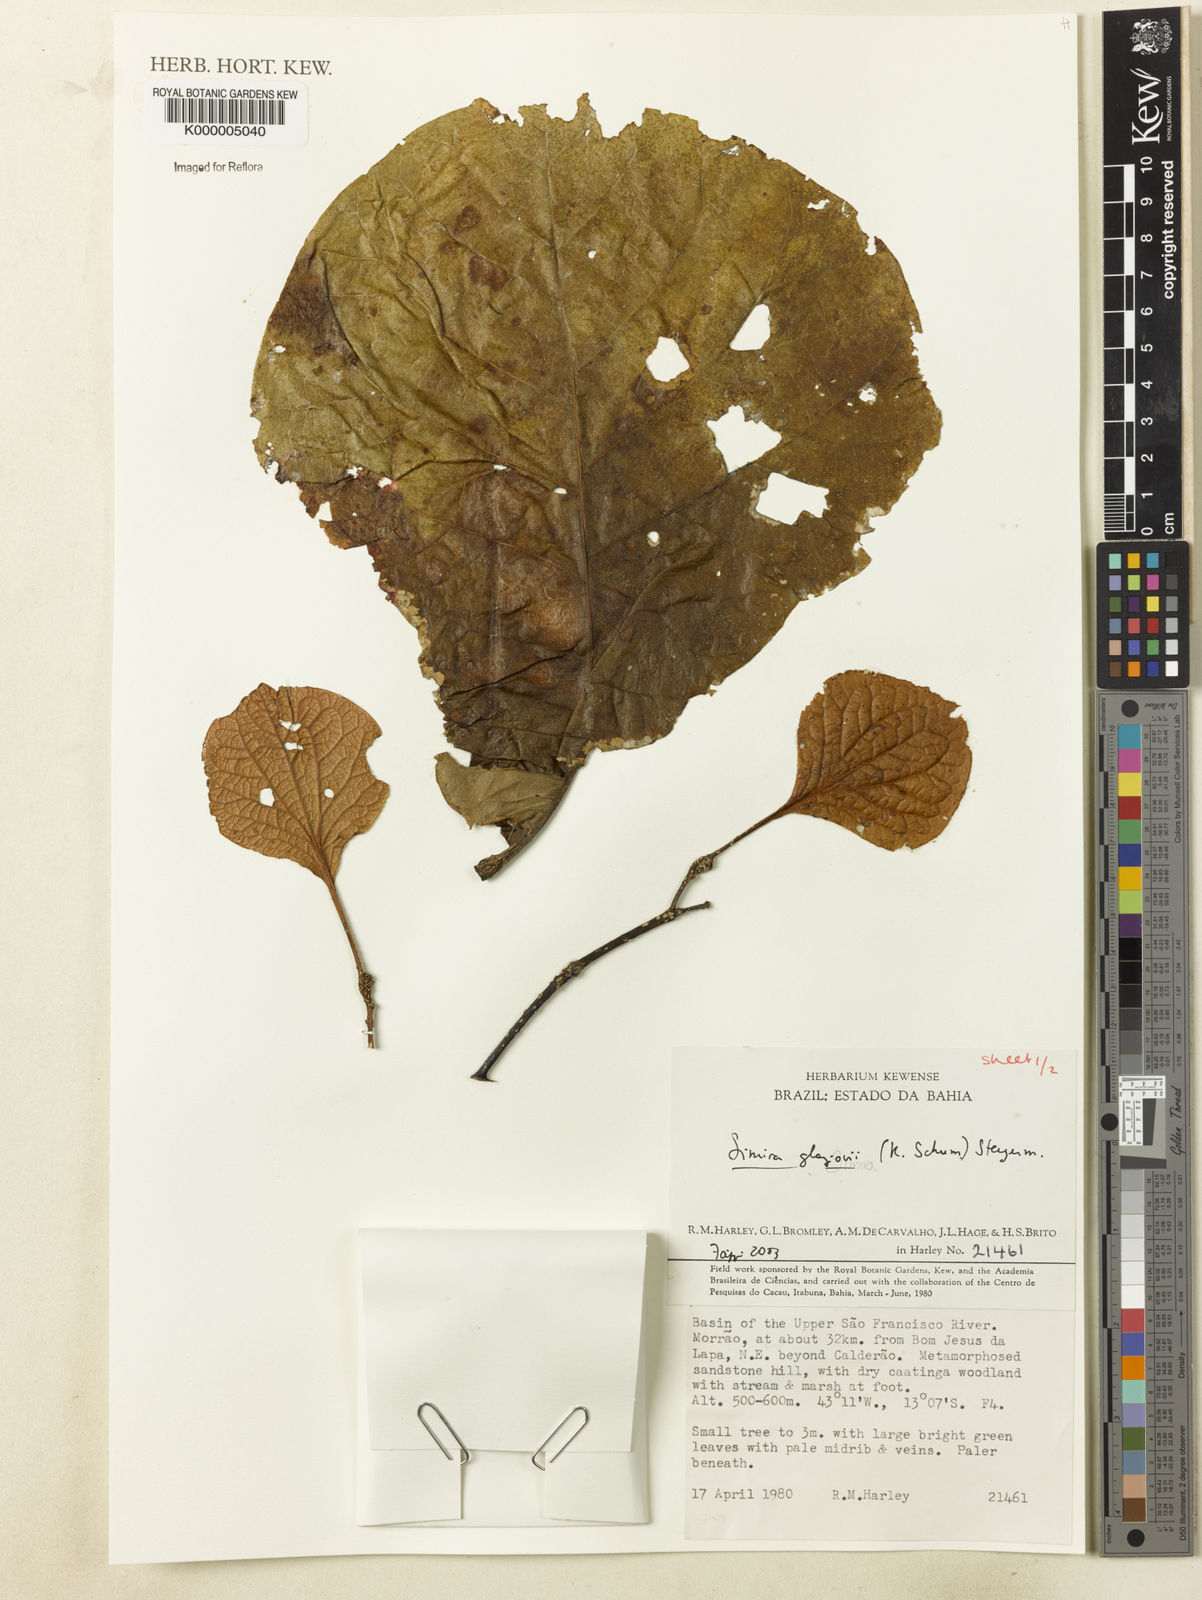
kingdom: Plantae
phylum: Tracheophyta
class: Magnoliopsida
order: Gentianales
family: Rubiaceae
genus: Pogonopus
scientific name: Pogonopus
